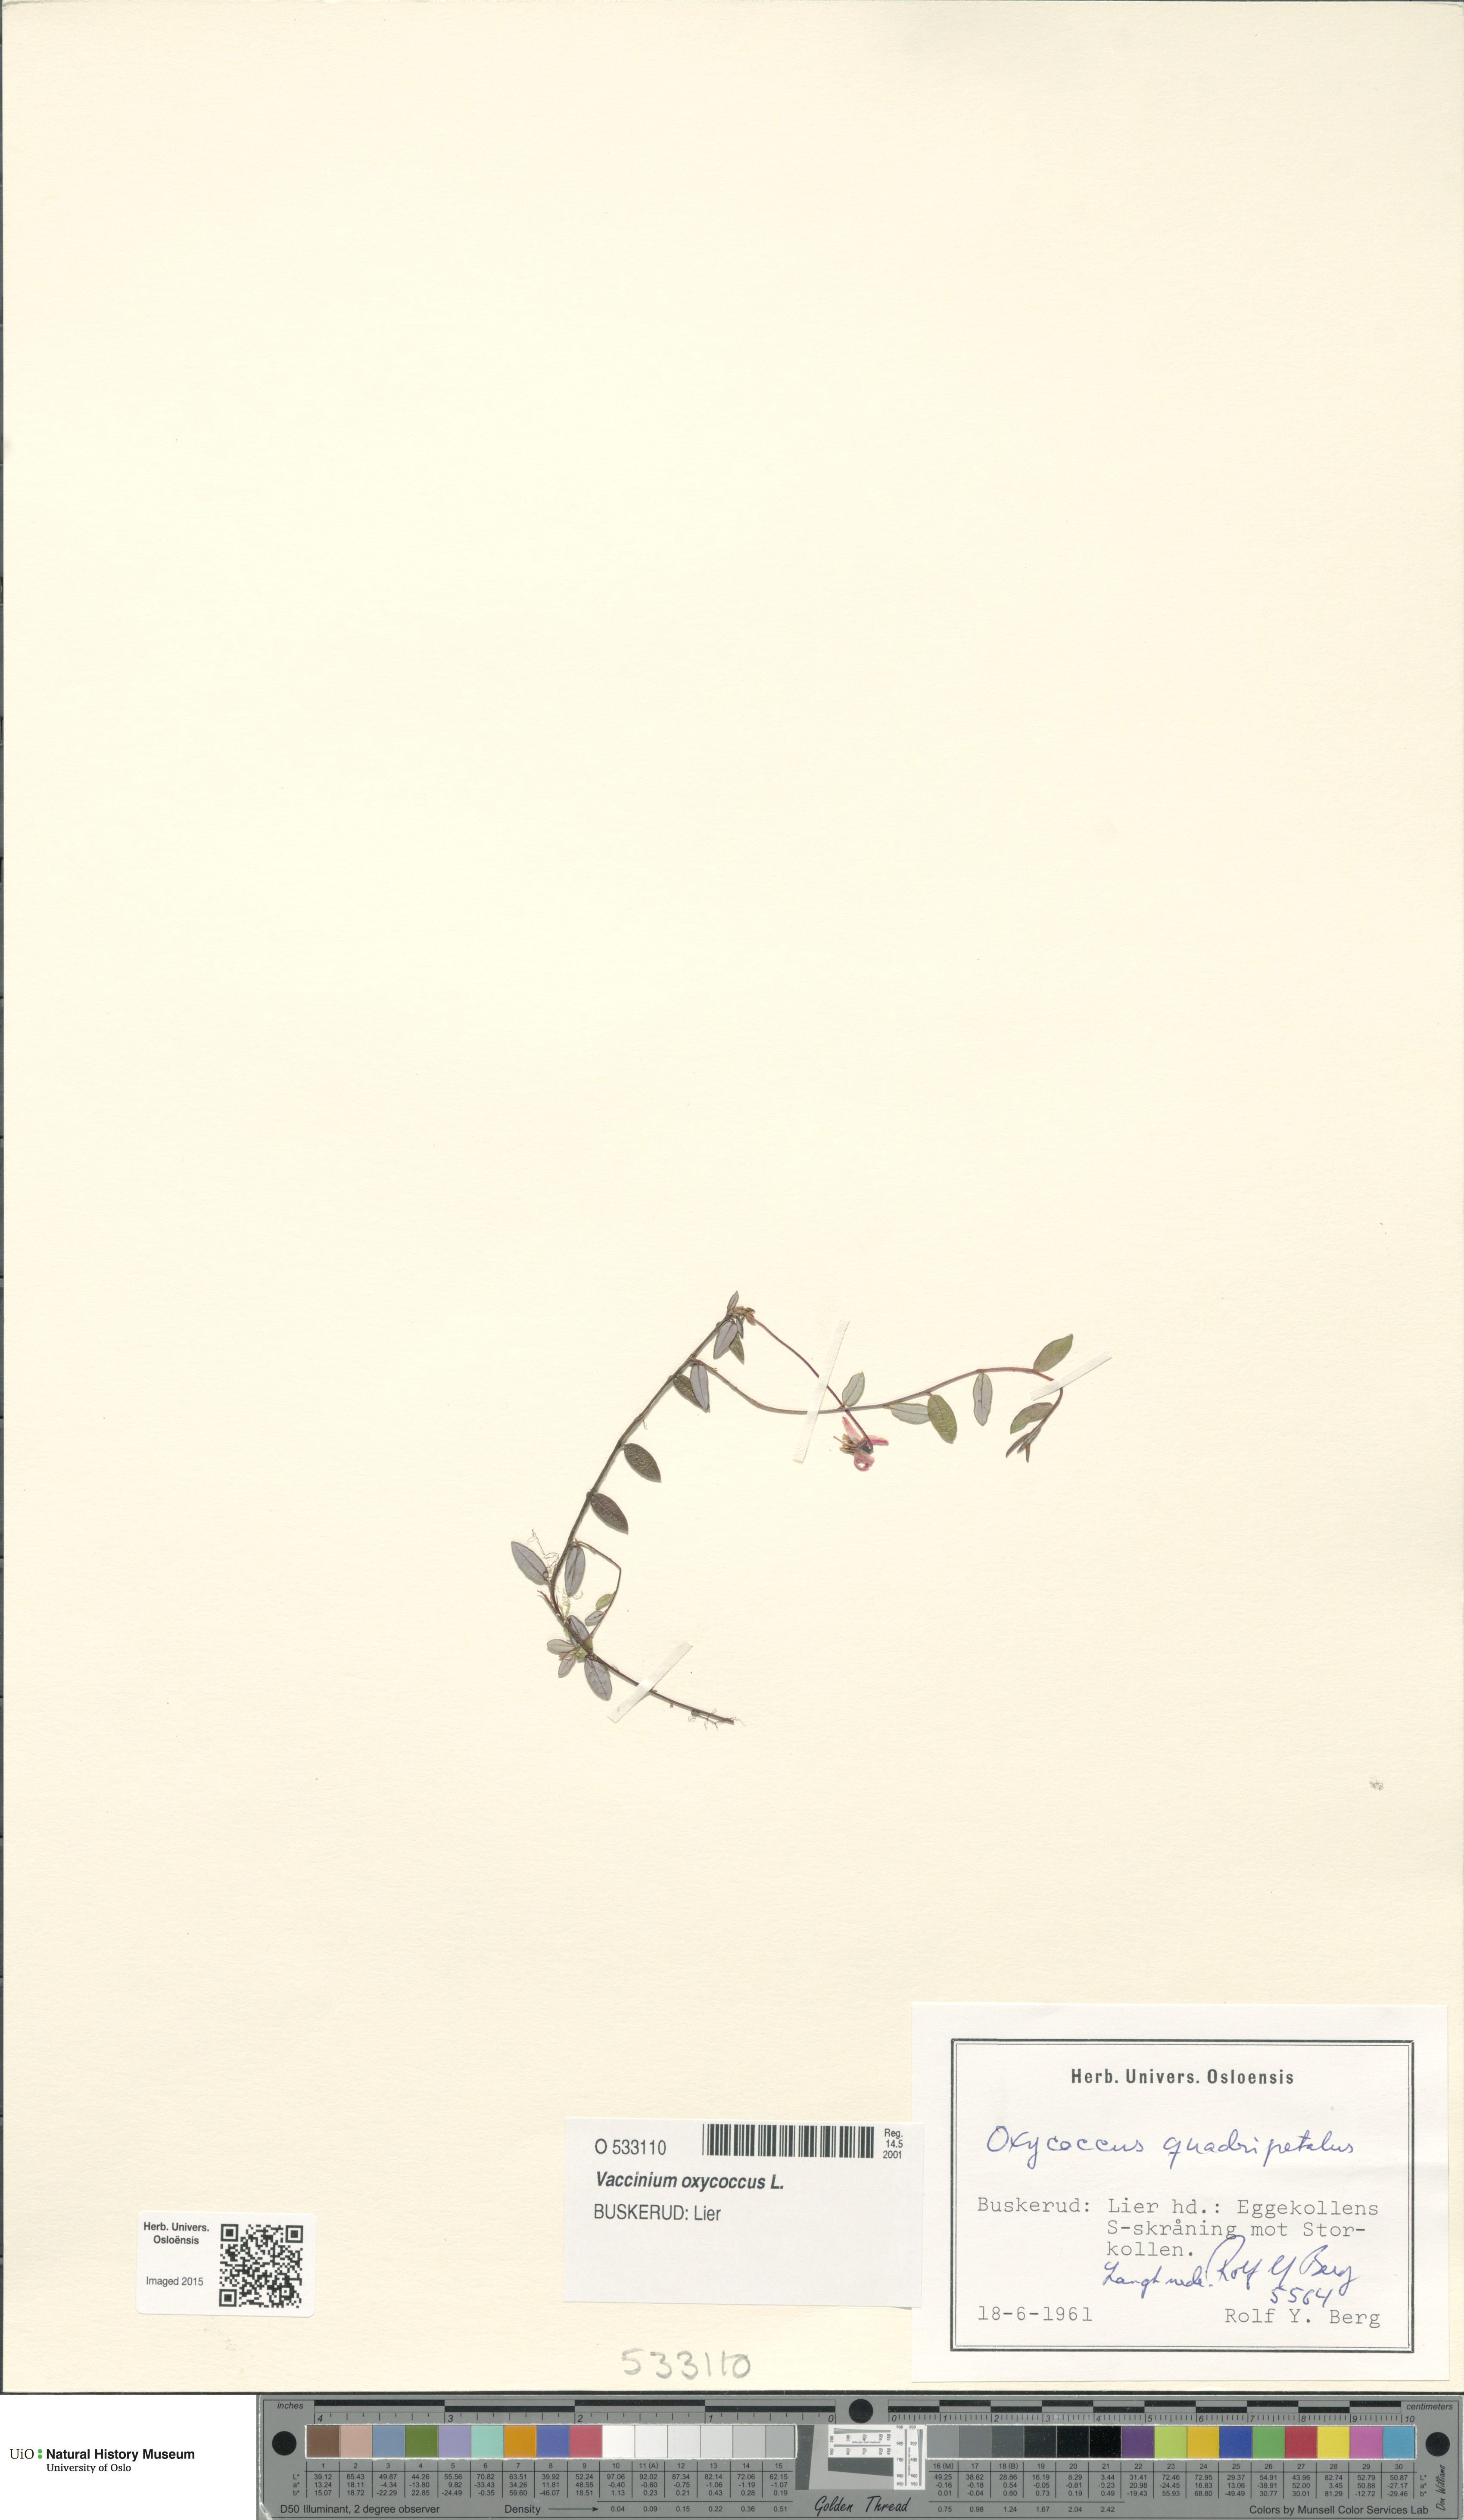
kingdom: Plantae
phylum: Tracheophyta
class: Magnoliopsida
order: Ericales
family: Ericaceae
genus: Vaccinium
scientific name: Vaccinium oxycoccos
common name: Cranberry
